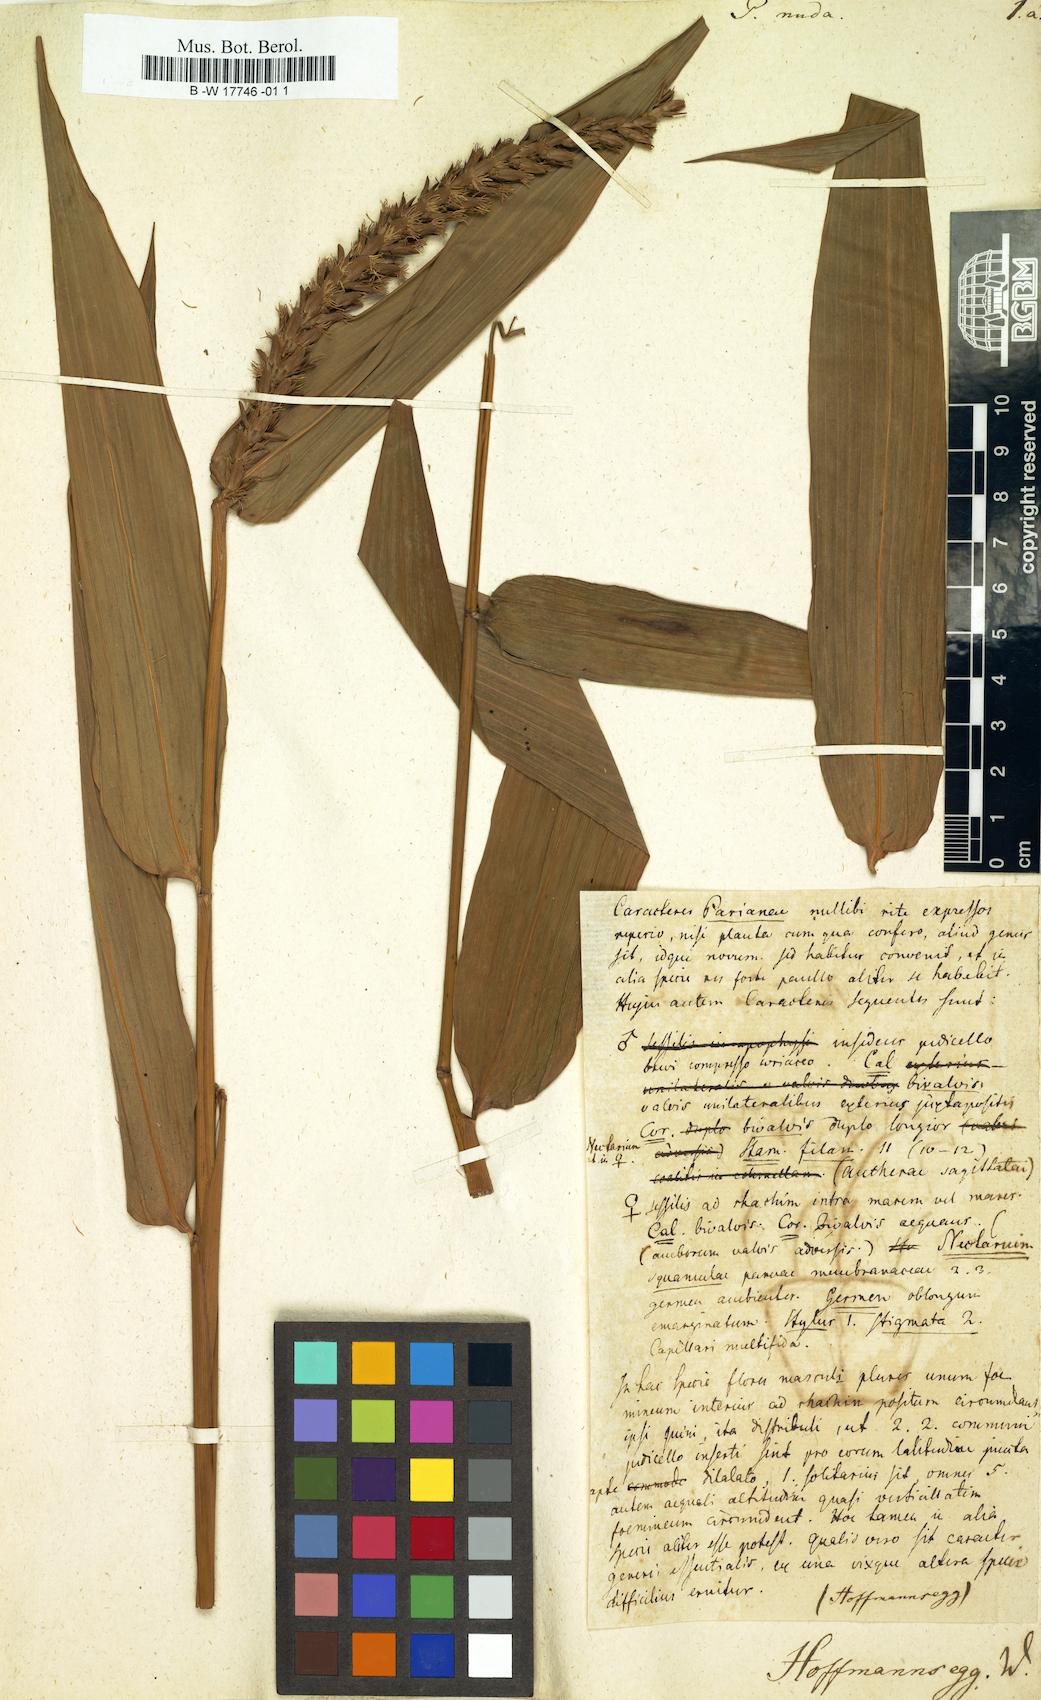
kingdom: Plantae
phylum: Tracheophyta
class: Liliopsida
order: Poales
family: Poaceae
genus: Pariana
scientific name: Pariana
